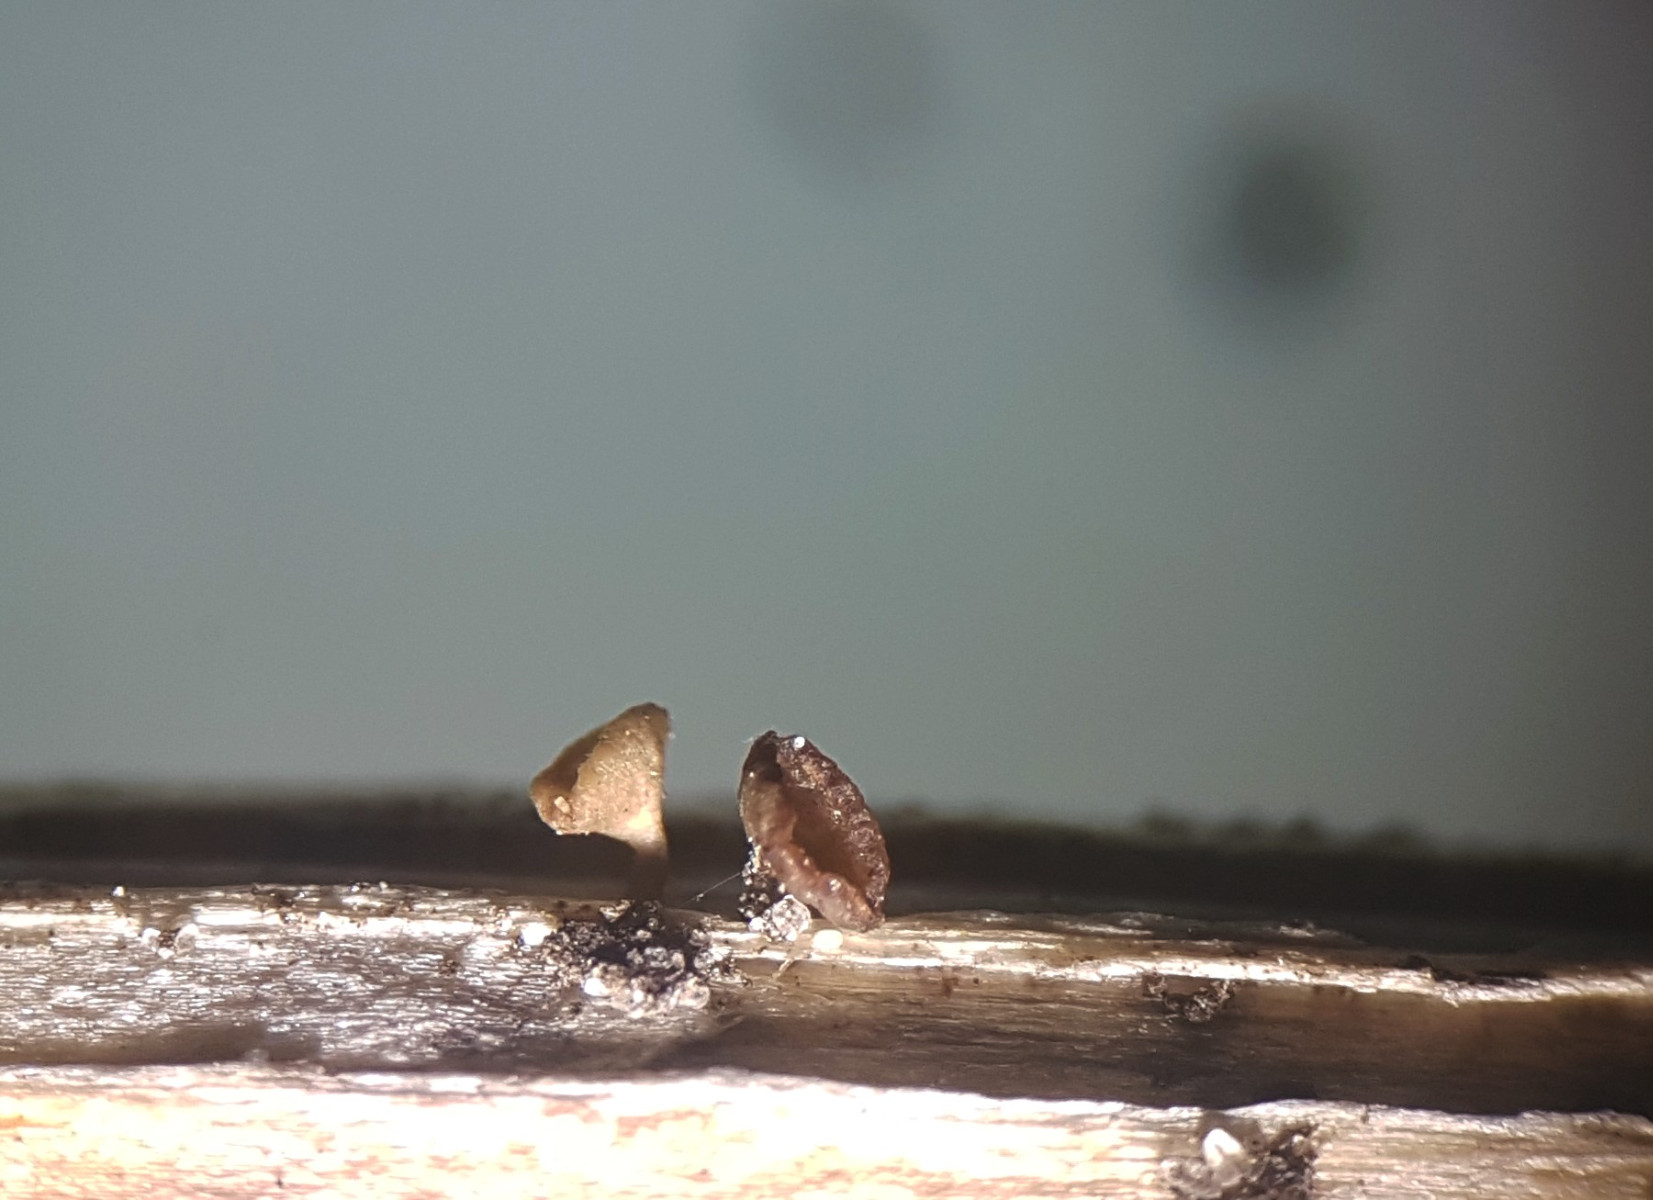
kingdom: Fungi
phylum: Ascomycota
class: Leotiomycetes
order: Helotiales
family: Helotiaceae
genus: Cyathicula
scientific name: Cyathicula cyathoidea
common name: pokal-stilkskive
